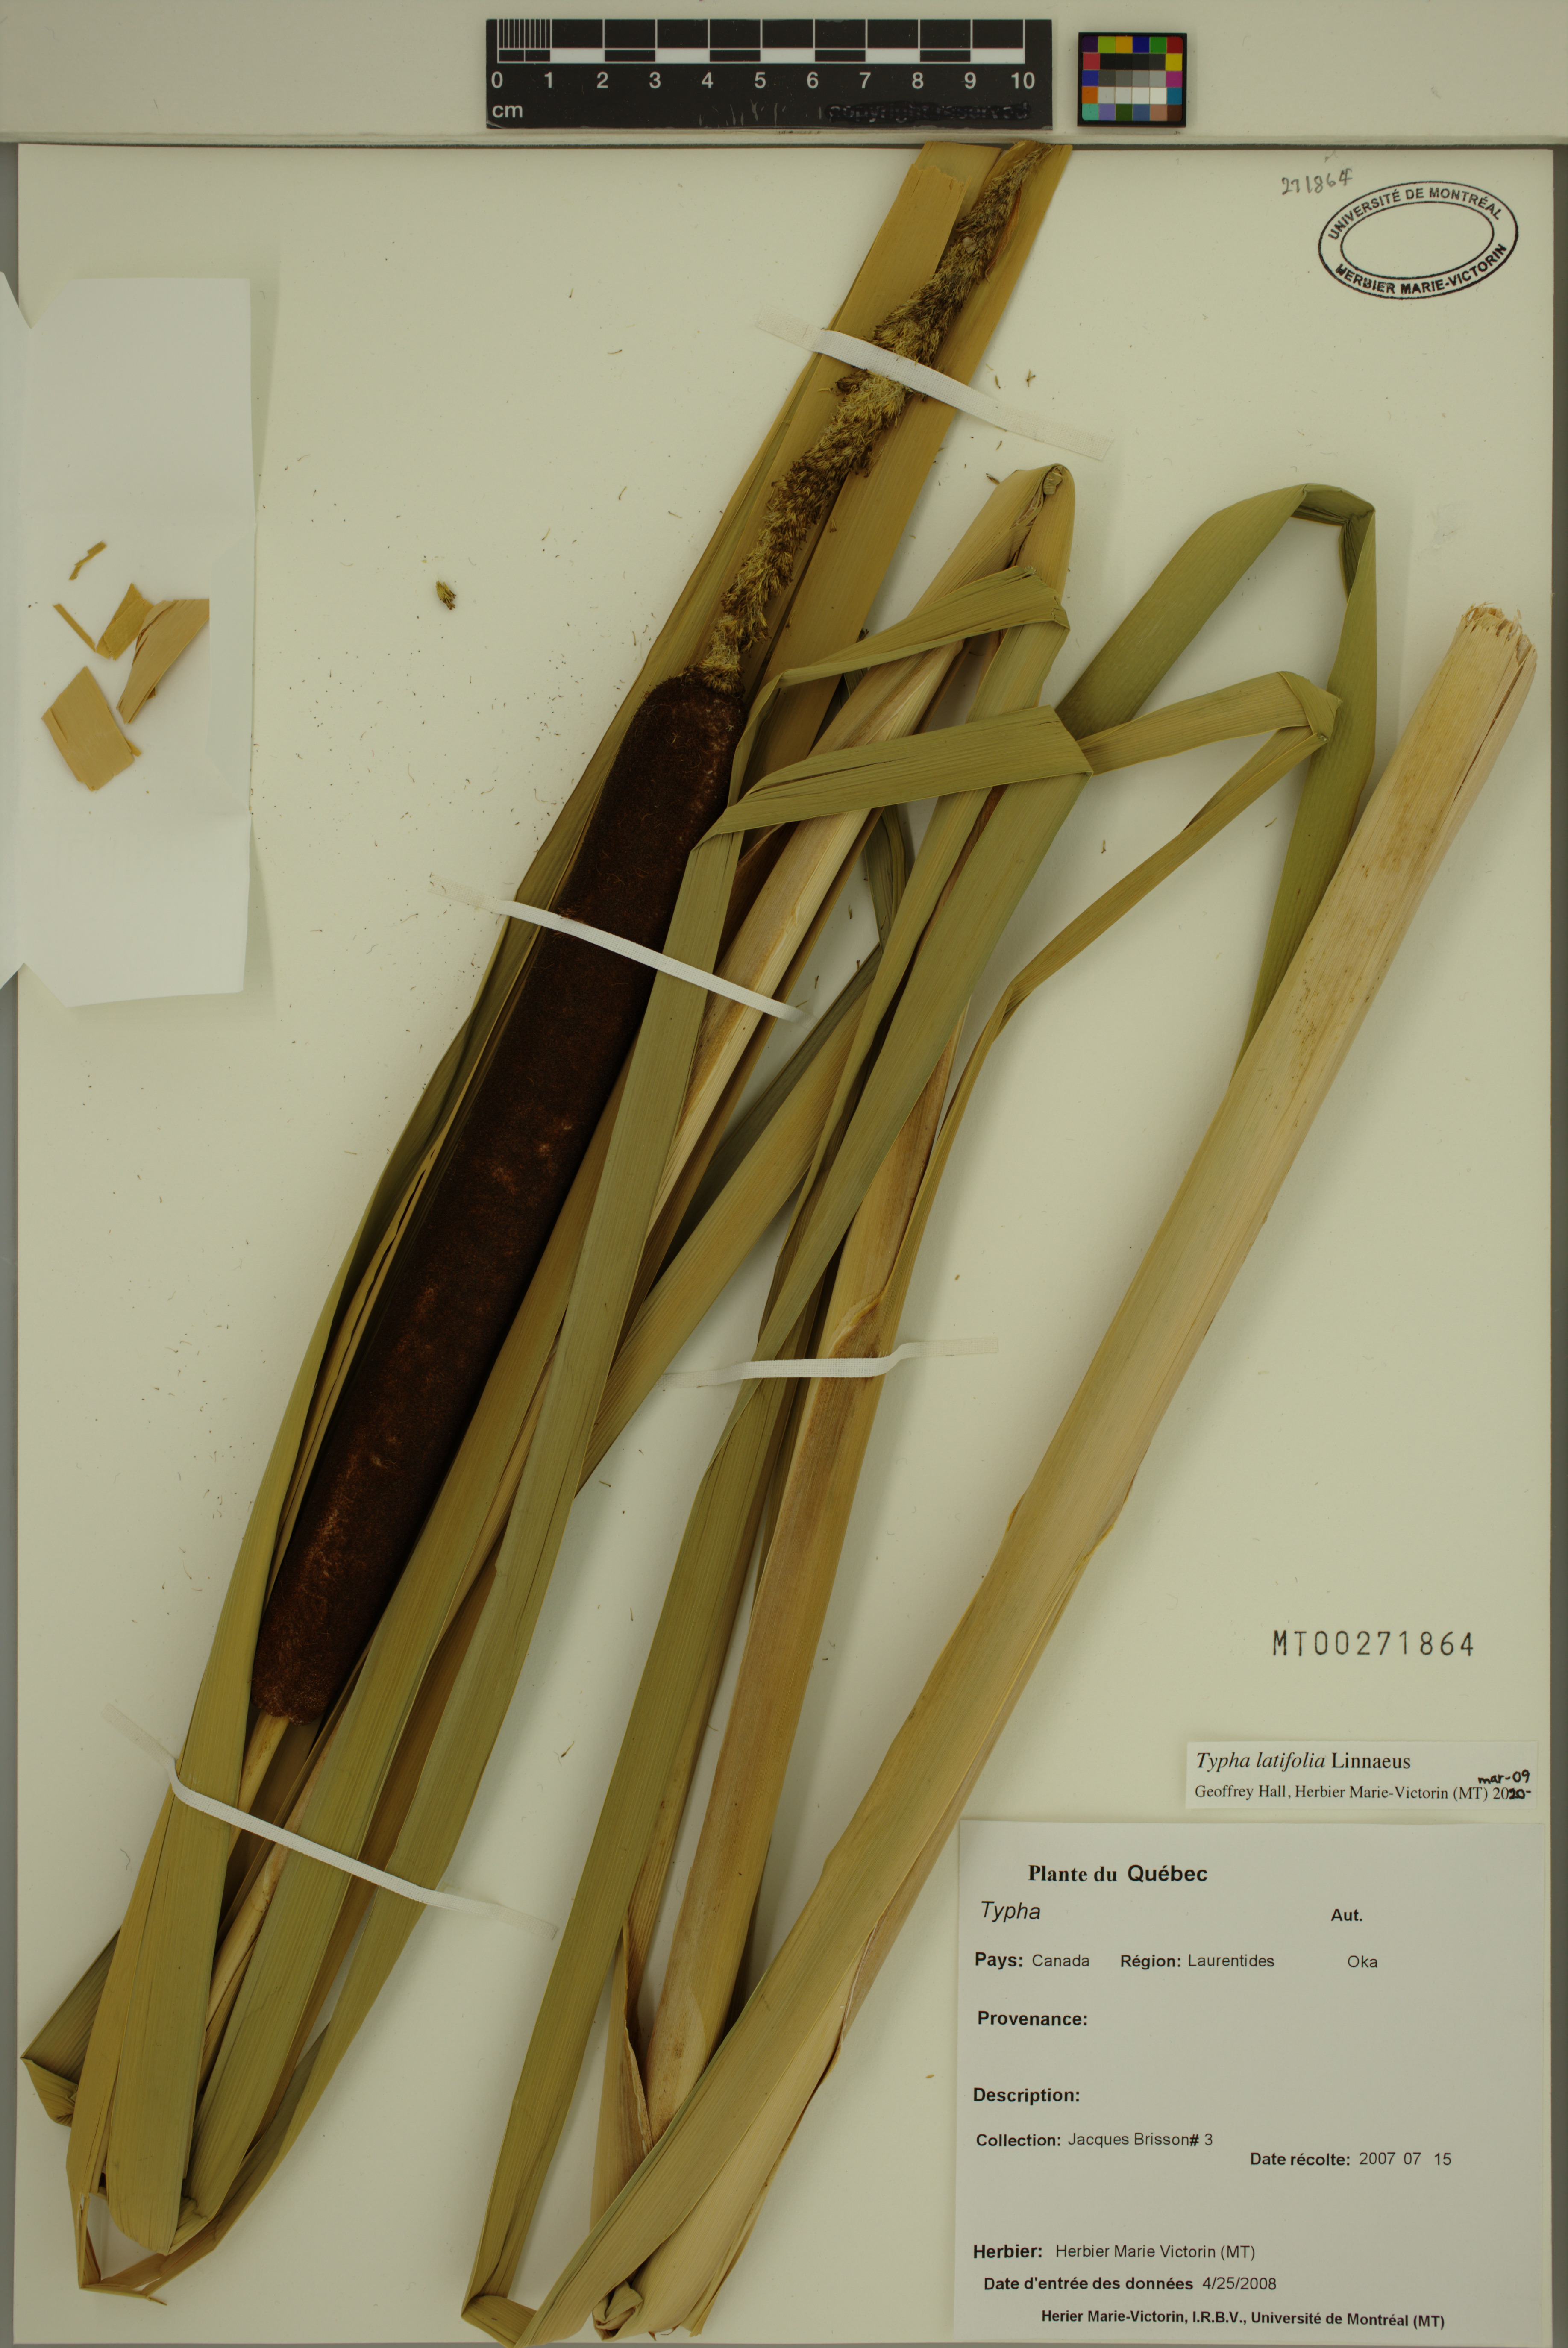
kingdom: Plantae
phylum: Tracheophyta
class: Liliopsida
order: Poales
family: Typhaceae
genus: Typha
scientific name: Typha latifolia
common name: Broadleaf cattail
